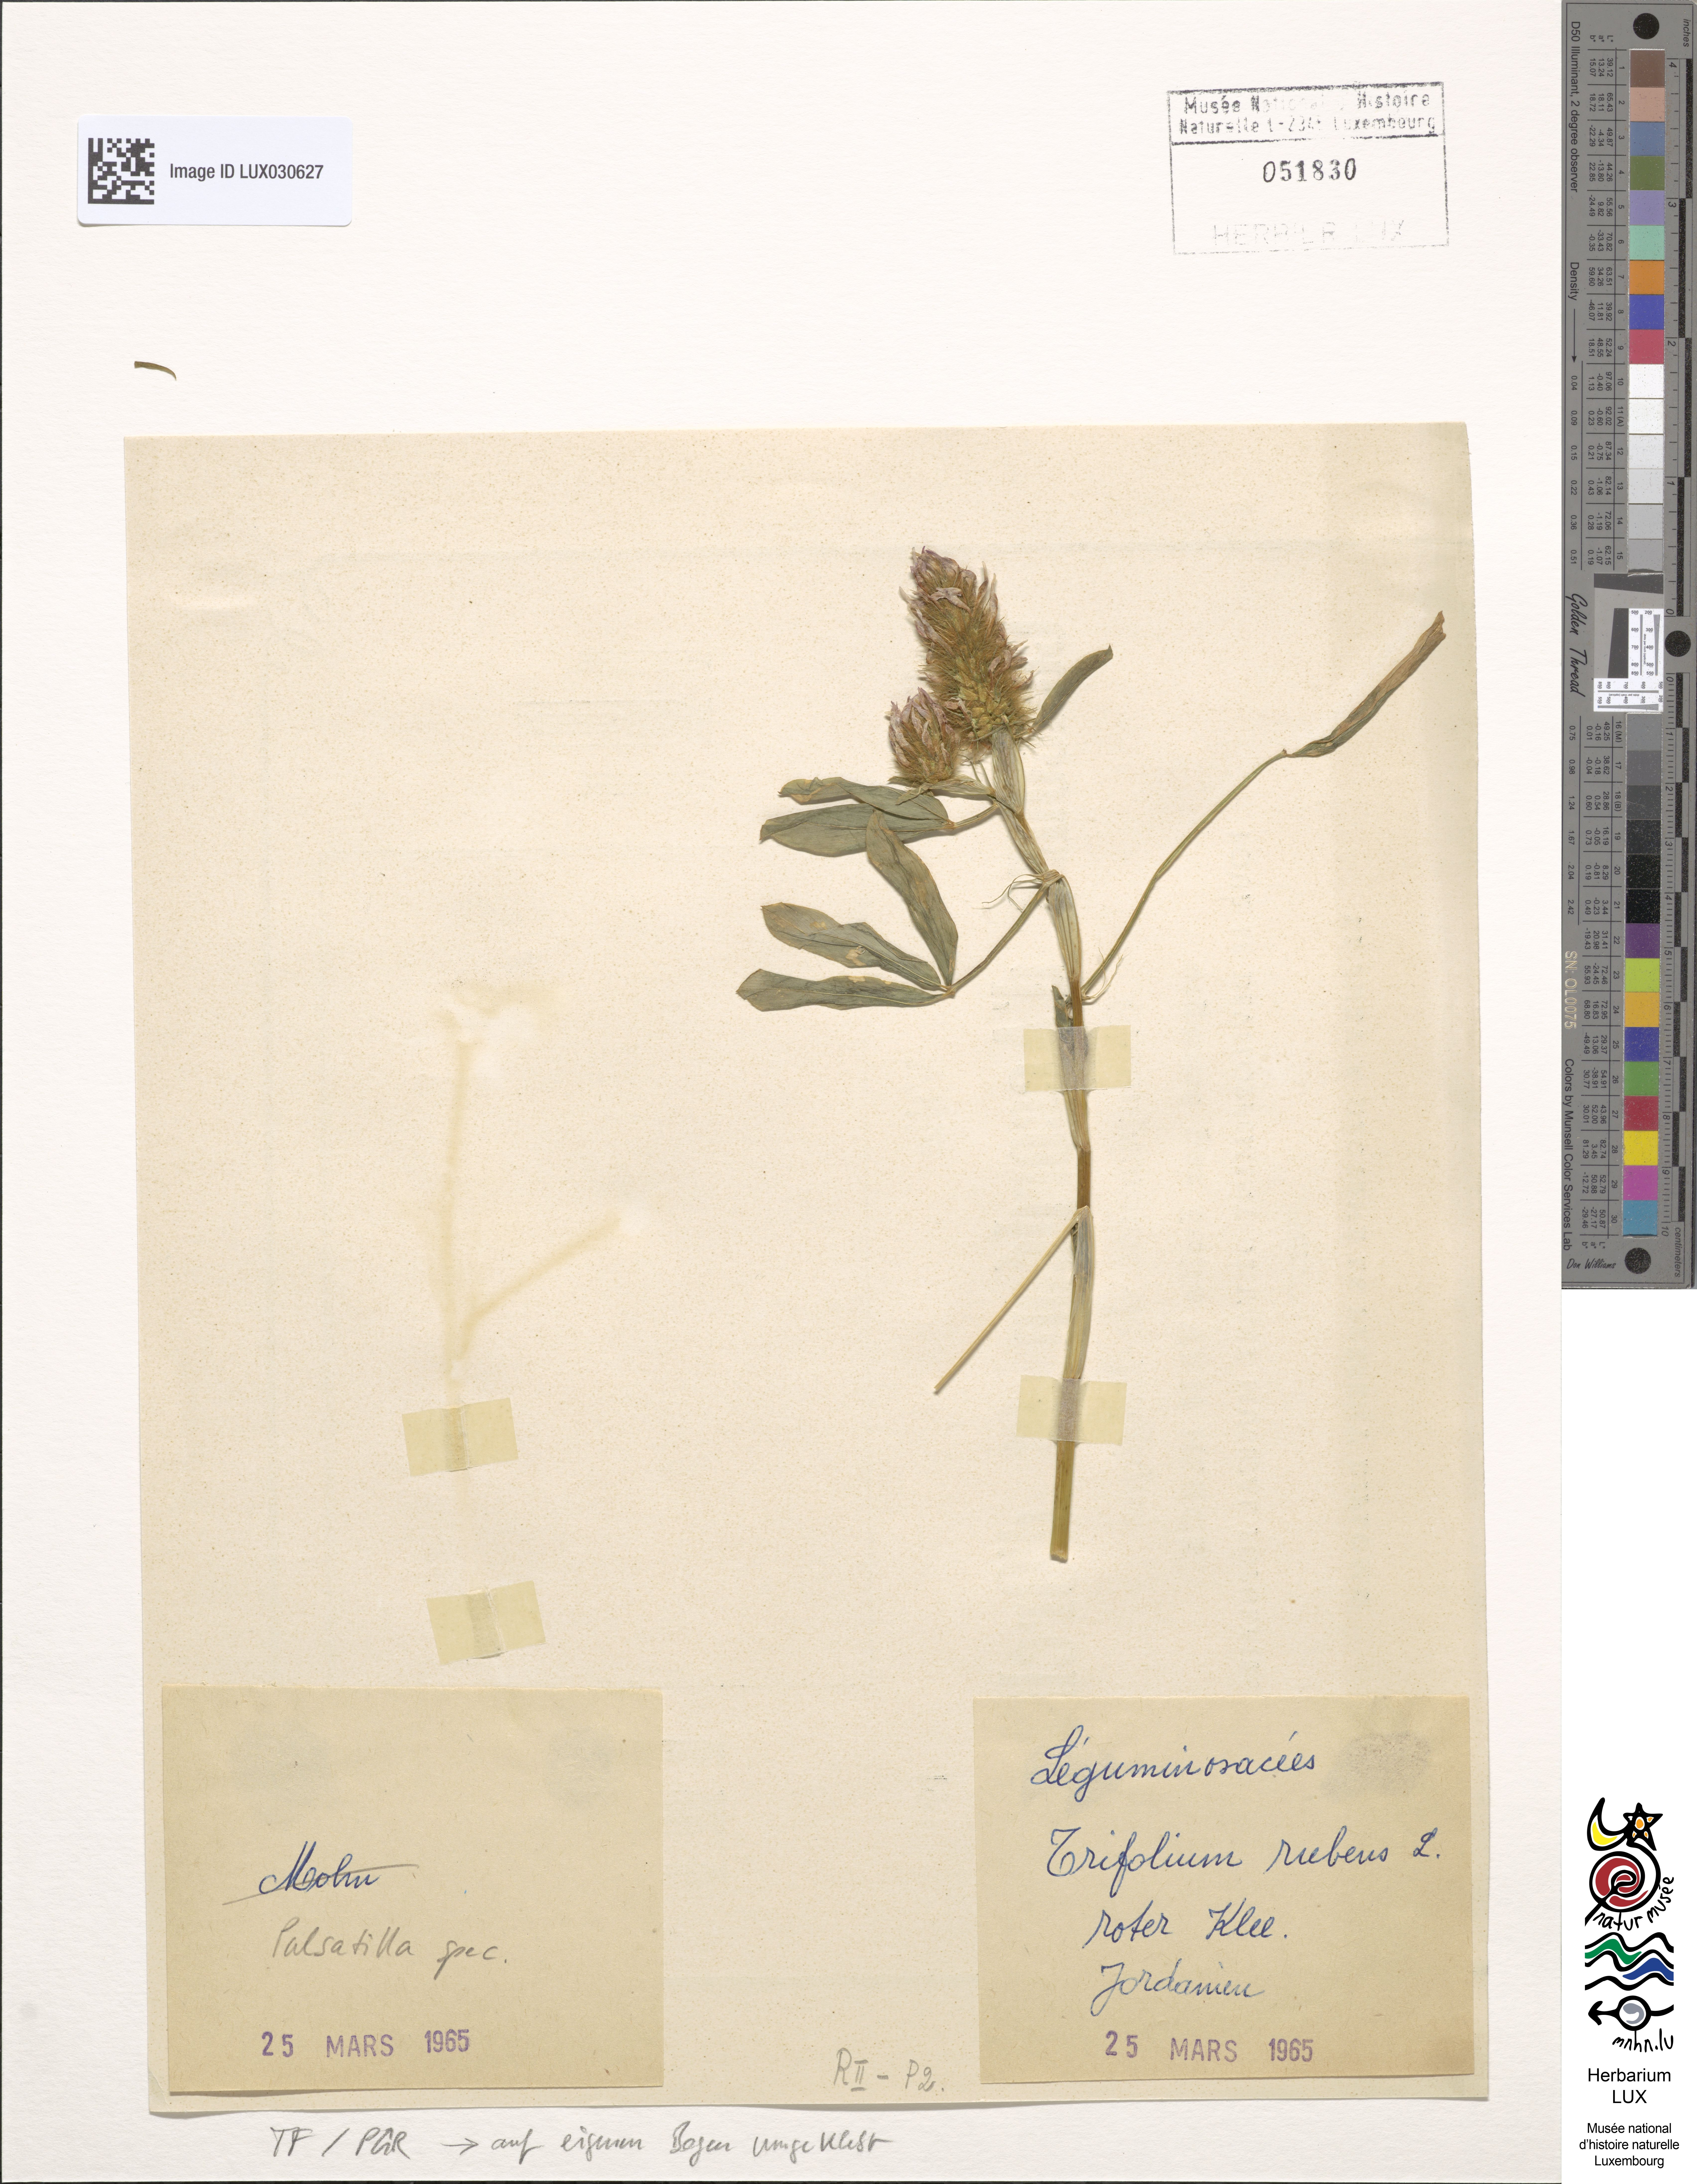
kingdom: Plantae
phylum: Tracheophyta
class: Magnoliopsida
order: Fabales
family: Fabaceae
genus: Trifolium
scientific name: Trifolium rubens
